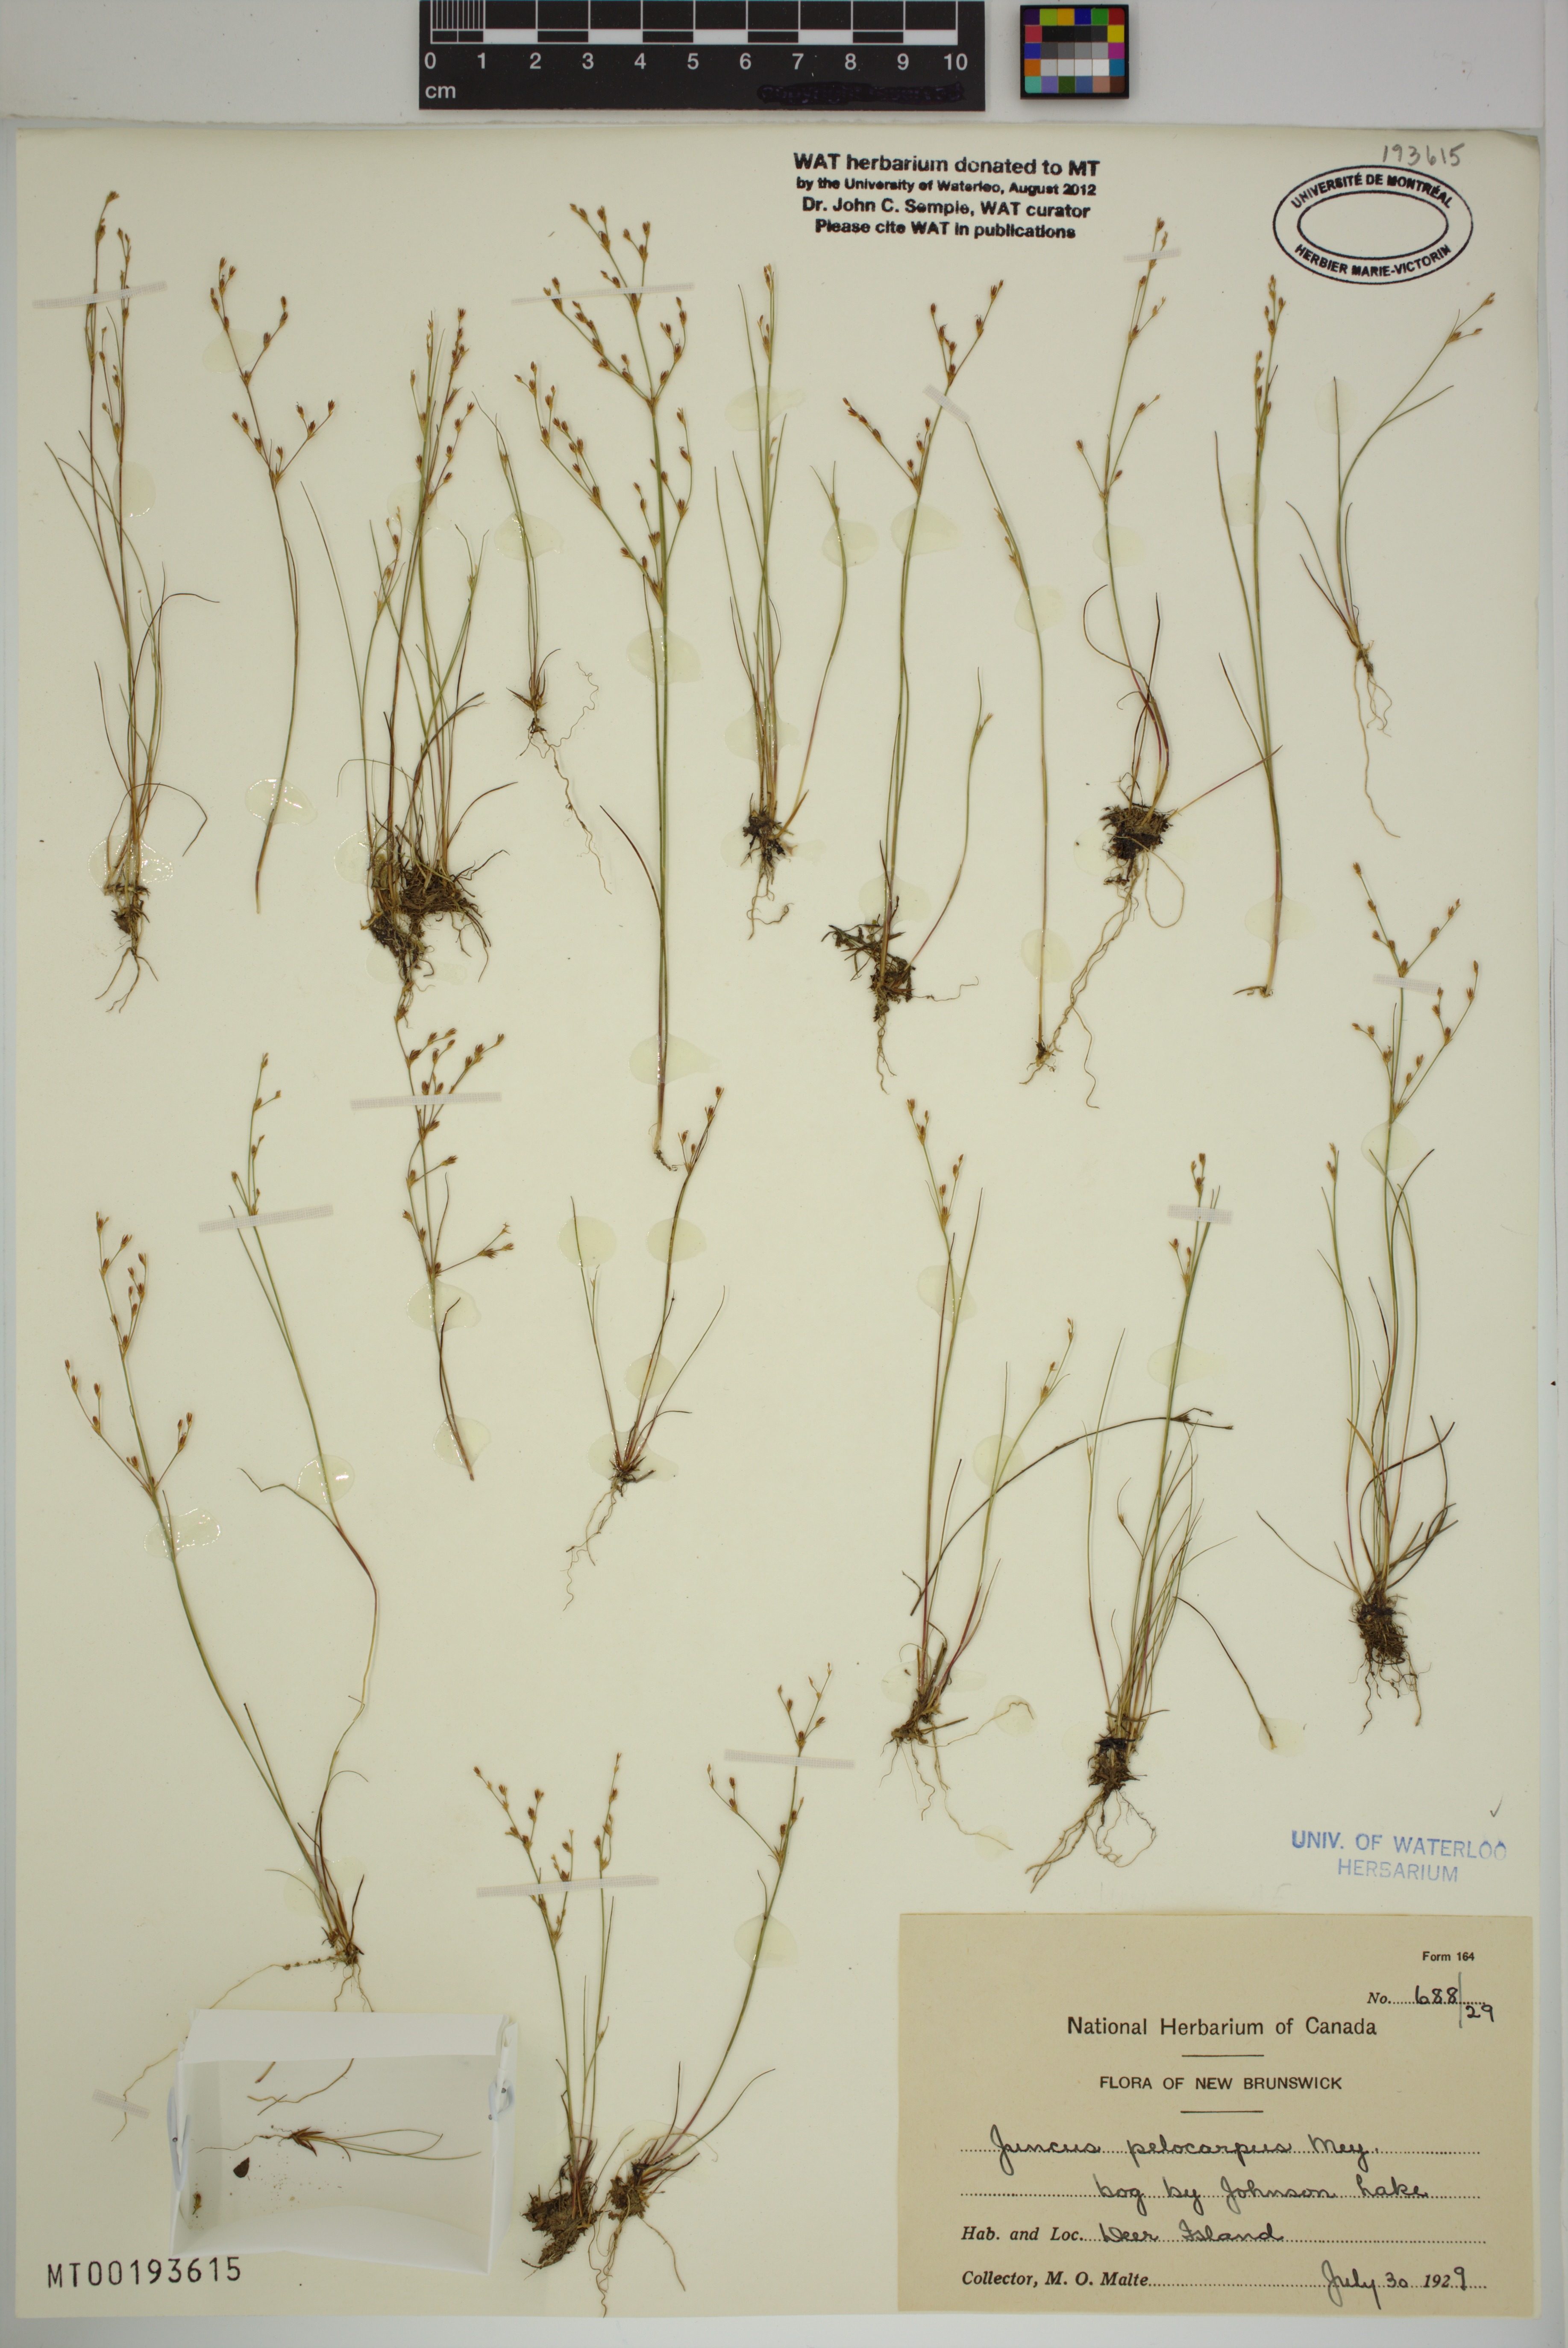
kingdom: Plantae
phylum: Tracheophyta
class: Liliopsida
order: Poales
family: Juncaceae
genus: Juncus
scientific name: Juncus pelocarpus
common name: Brown-fruited rush
